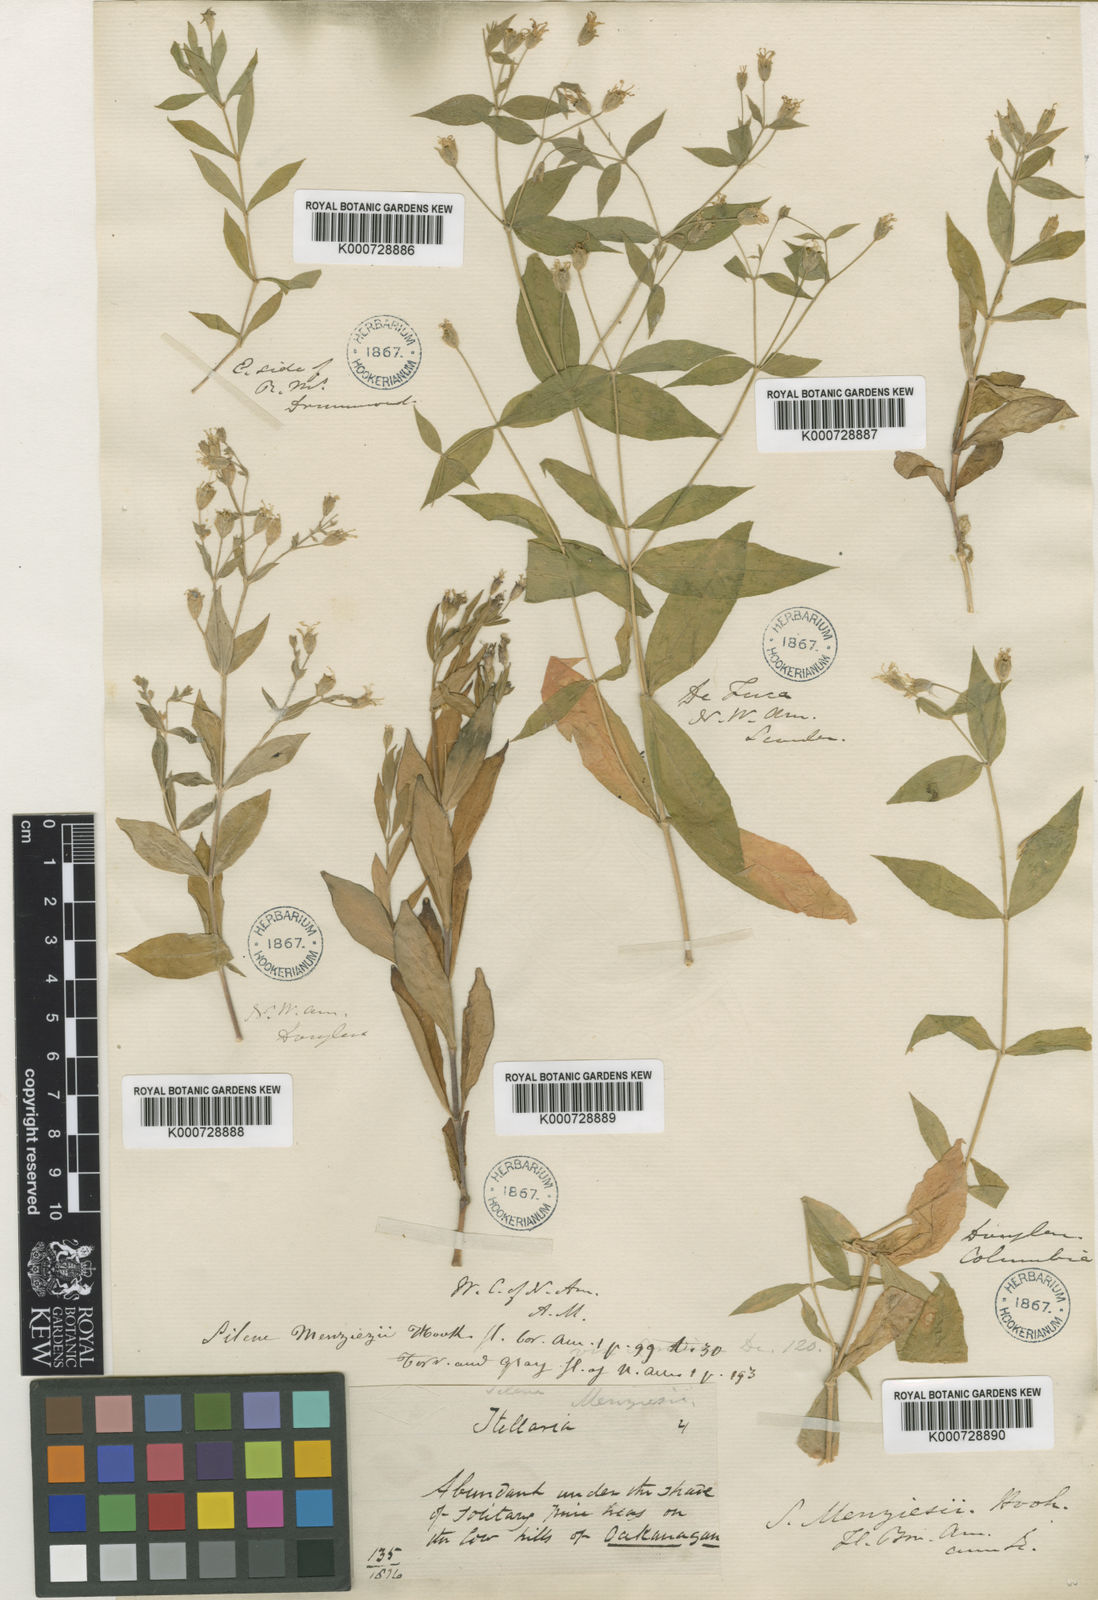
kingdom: Plantae
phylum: Tracheophyta
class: Magnoliopsida
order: Caryophyllales
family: Caryophyllaceae
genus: Silene
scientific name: Silene menziesii
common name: Menzies's catchfly
